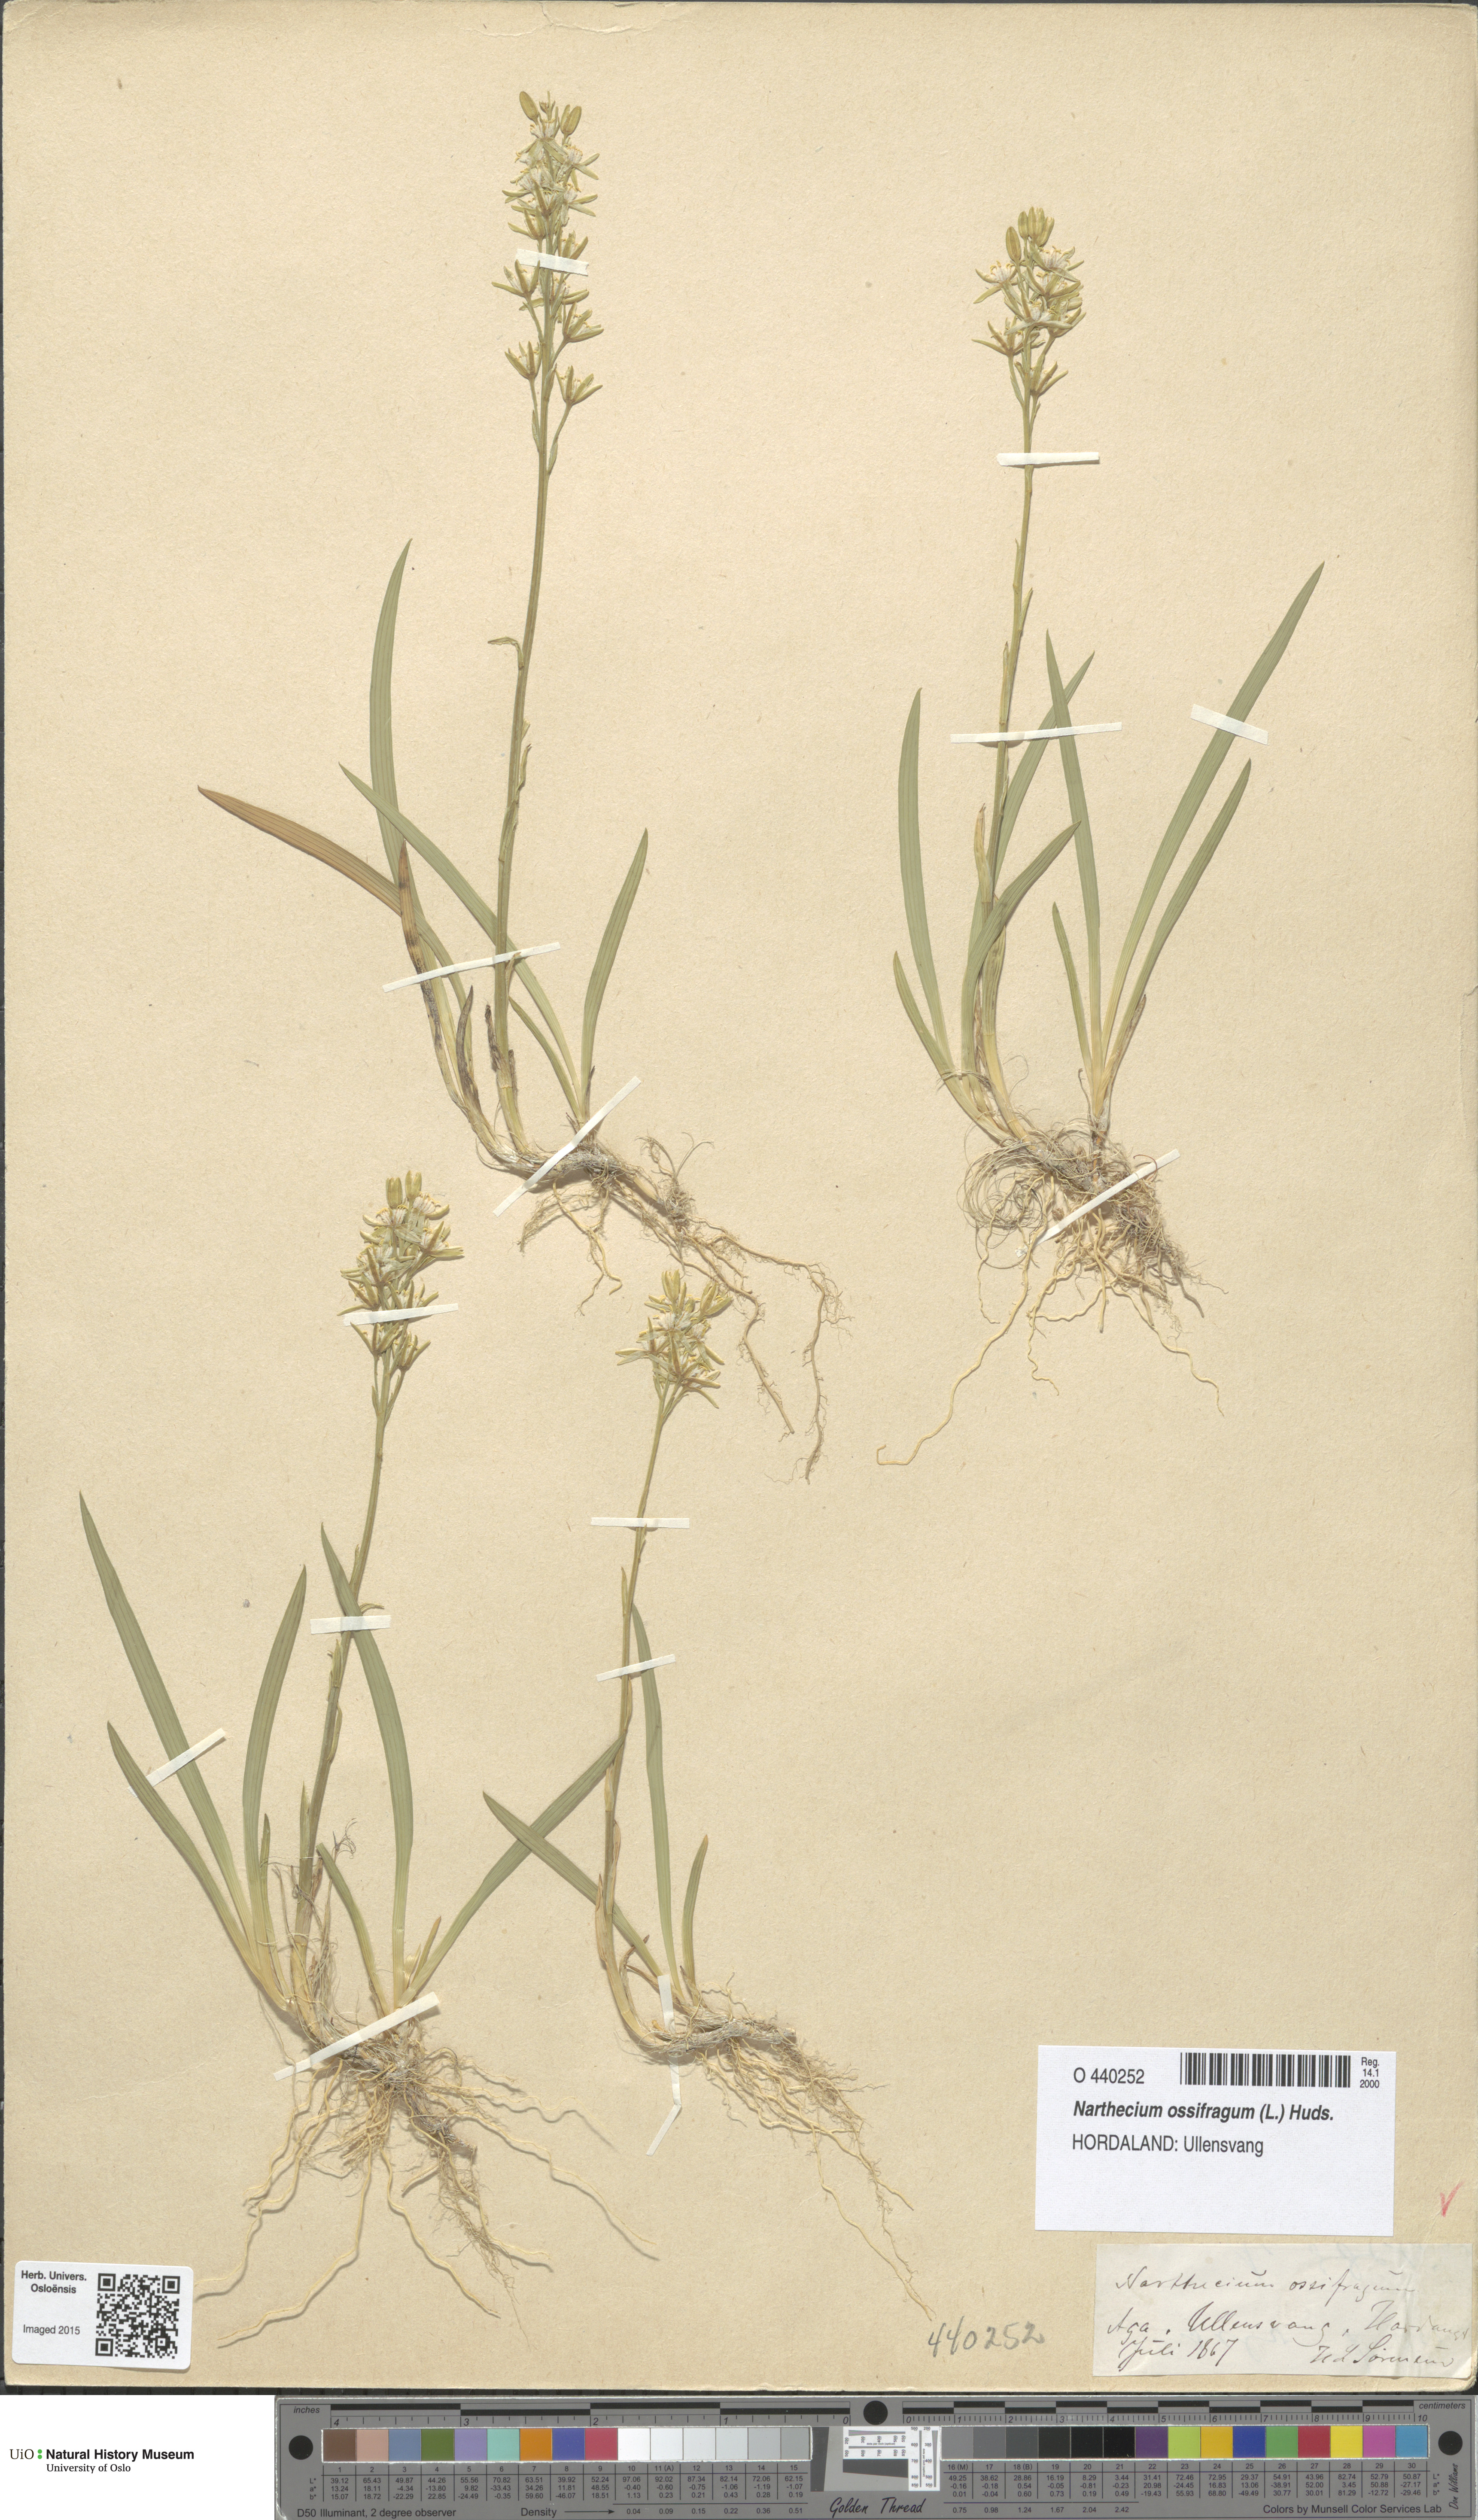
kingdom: Plantae
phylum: Tracheophyta
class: Liliopsida
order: Dioscoreales
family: Nartheciaceae
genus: Narthecium
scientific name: Narthecium ossifragum
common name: Bog asphodel
